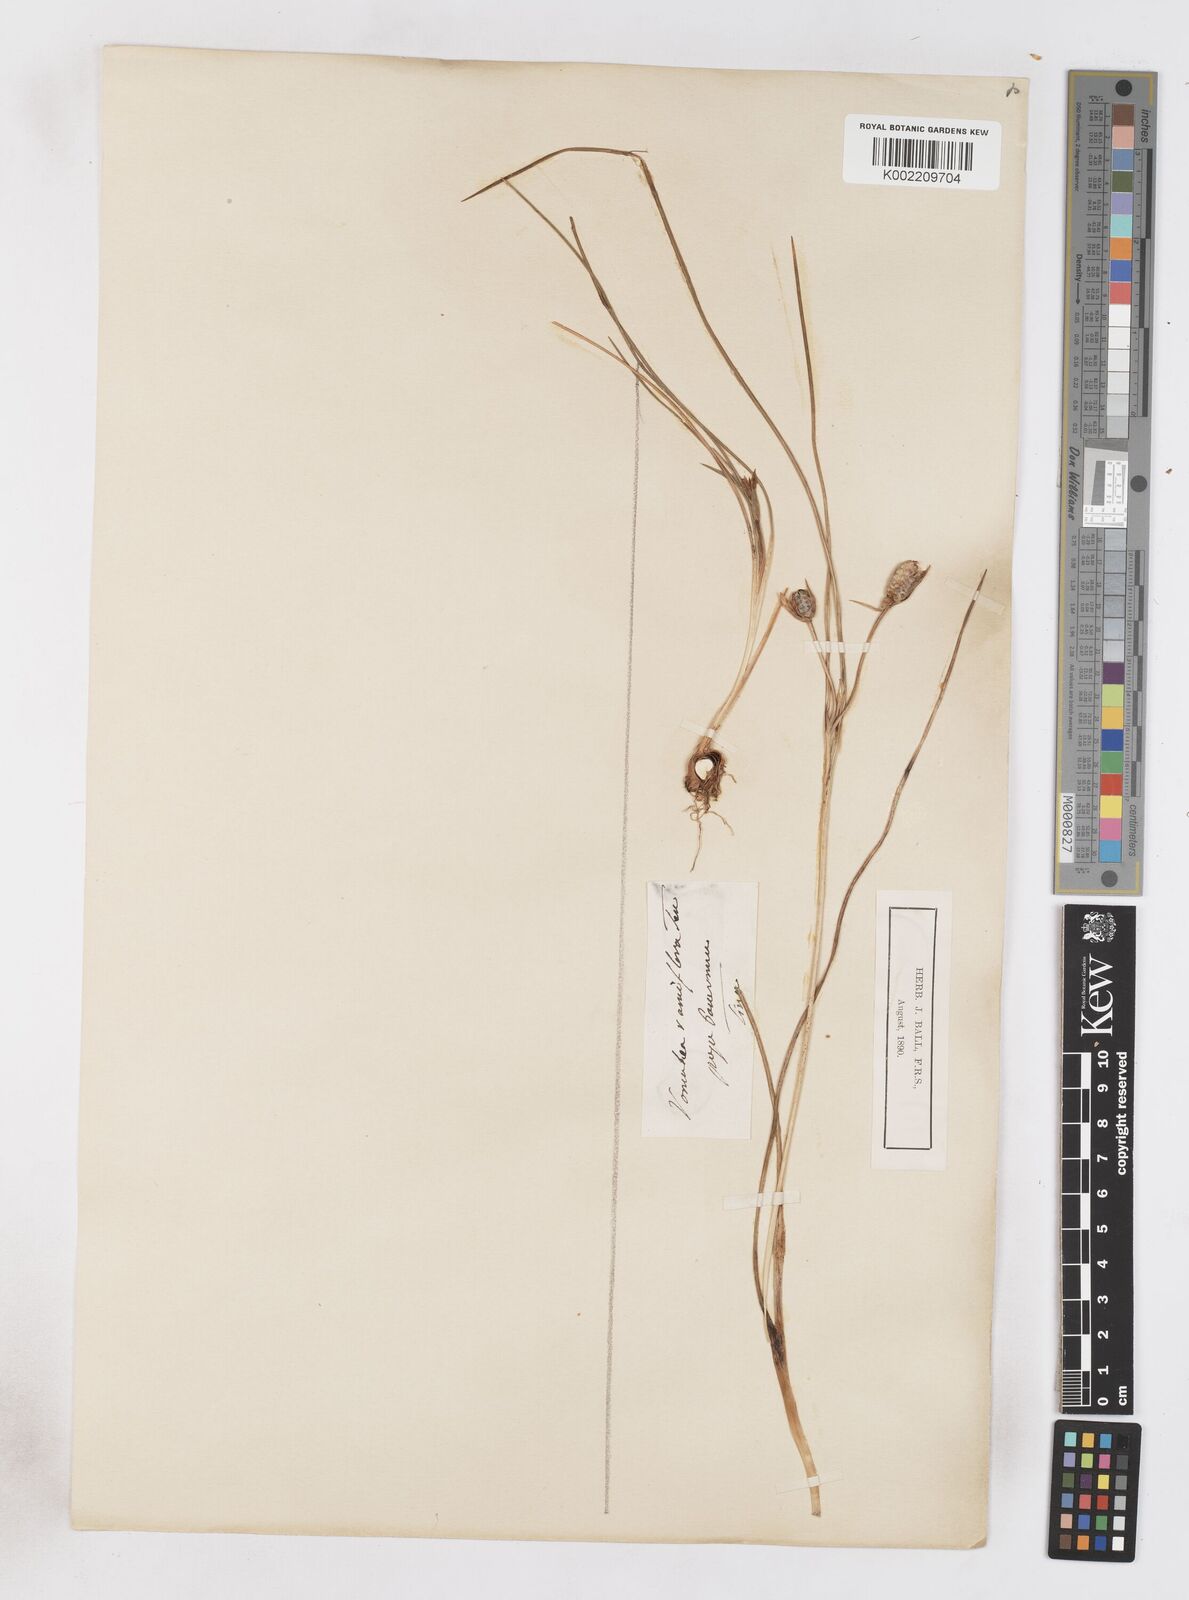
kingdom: Plantae
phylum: Tracheophyta
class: Liliopsida
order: Asparagales
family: Iridaceae
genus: Romulea
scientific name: Romulea ramiflora
